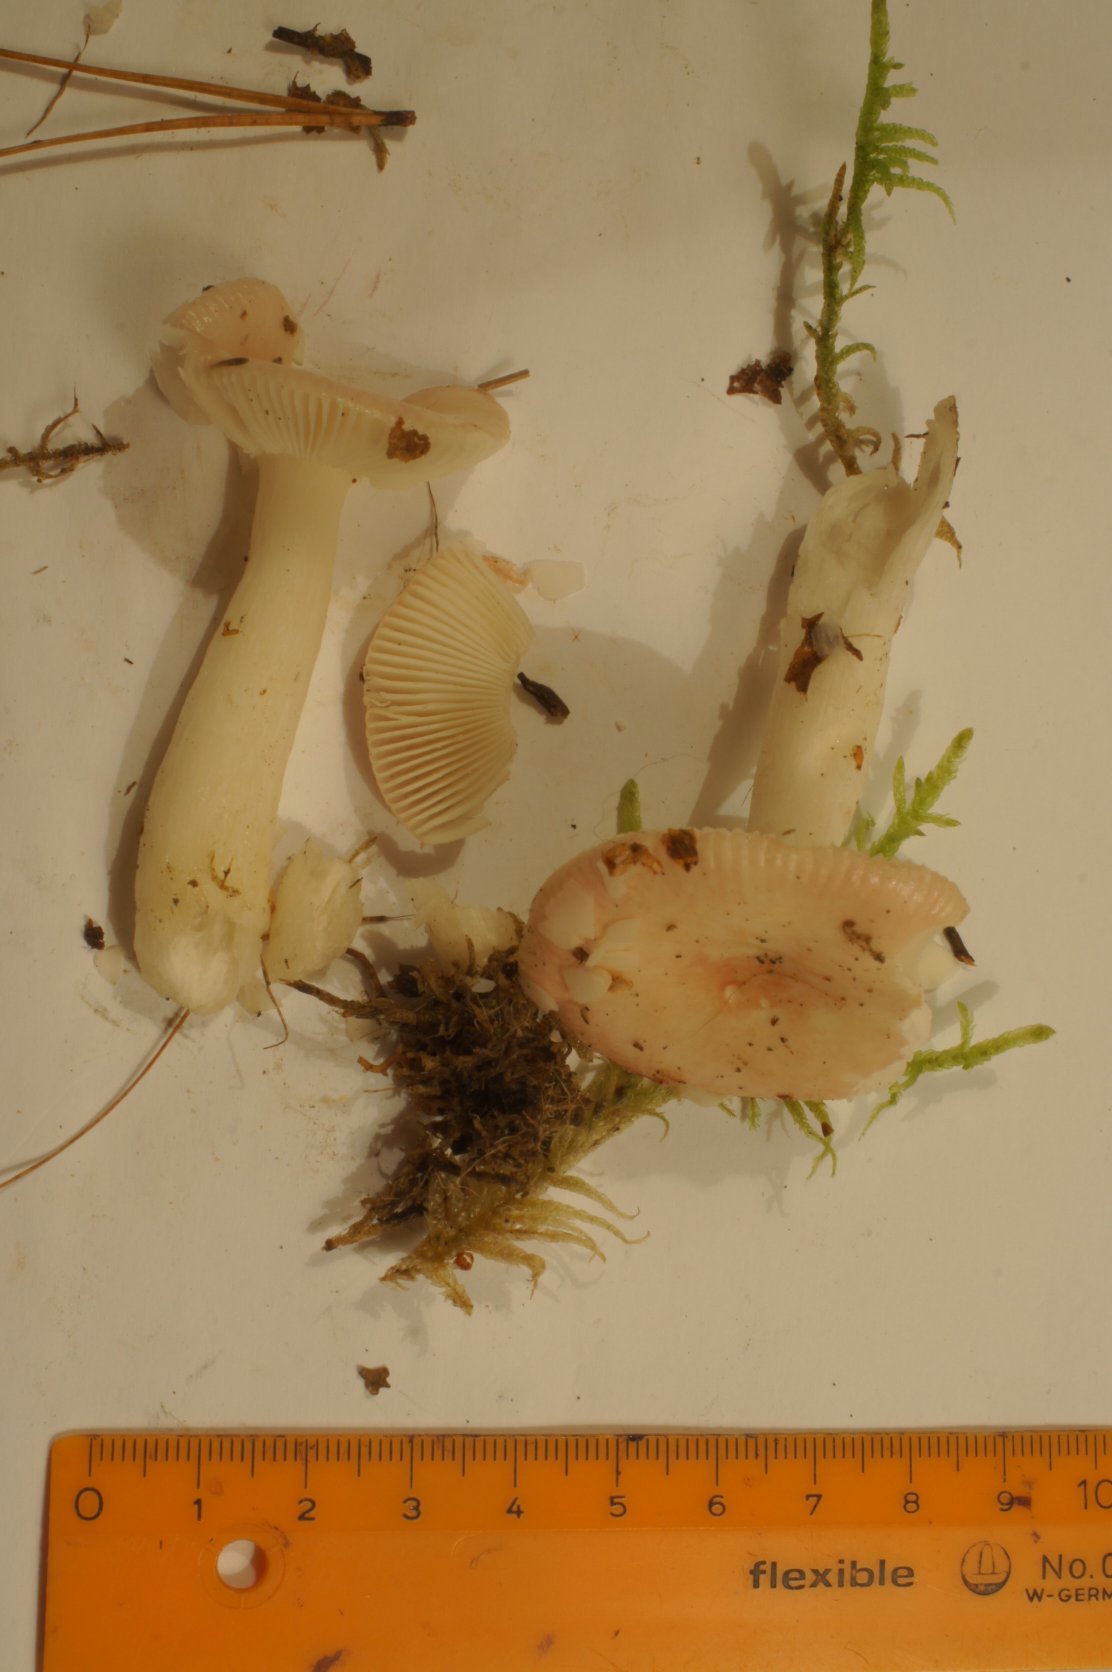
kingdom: Fungi
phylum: Basidiomycota
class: Agaricomycetes
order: Russulales
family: Russulaceae
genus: Russula
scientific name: Russula betularum
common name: bleg gift-skørhat
